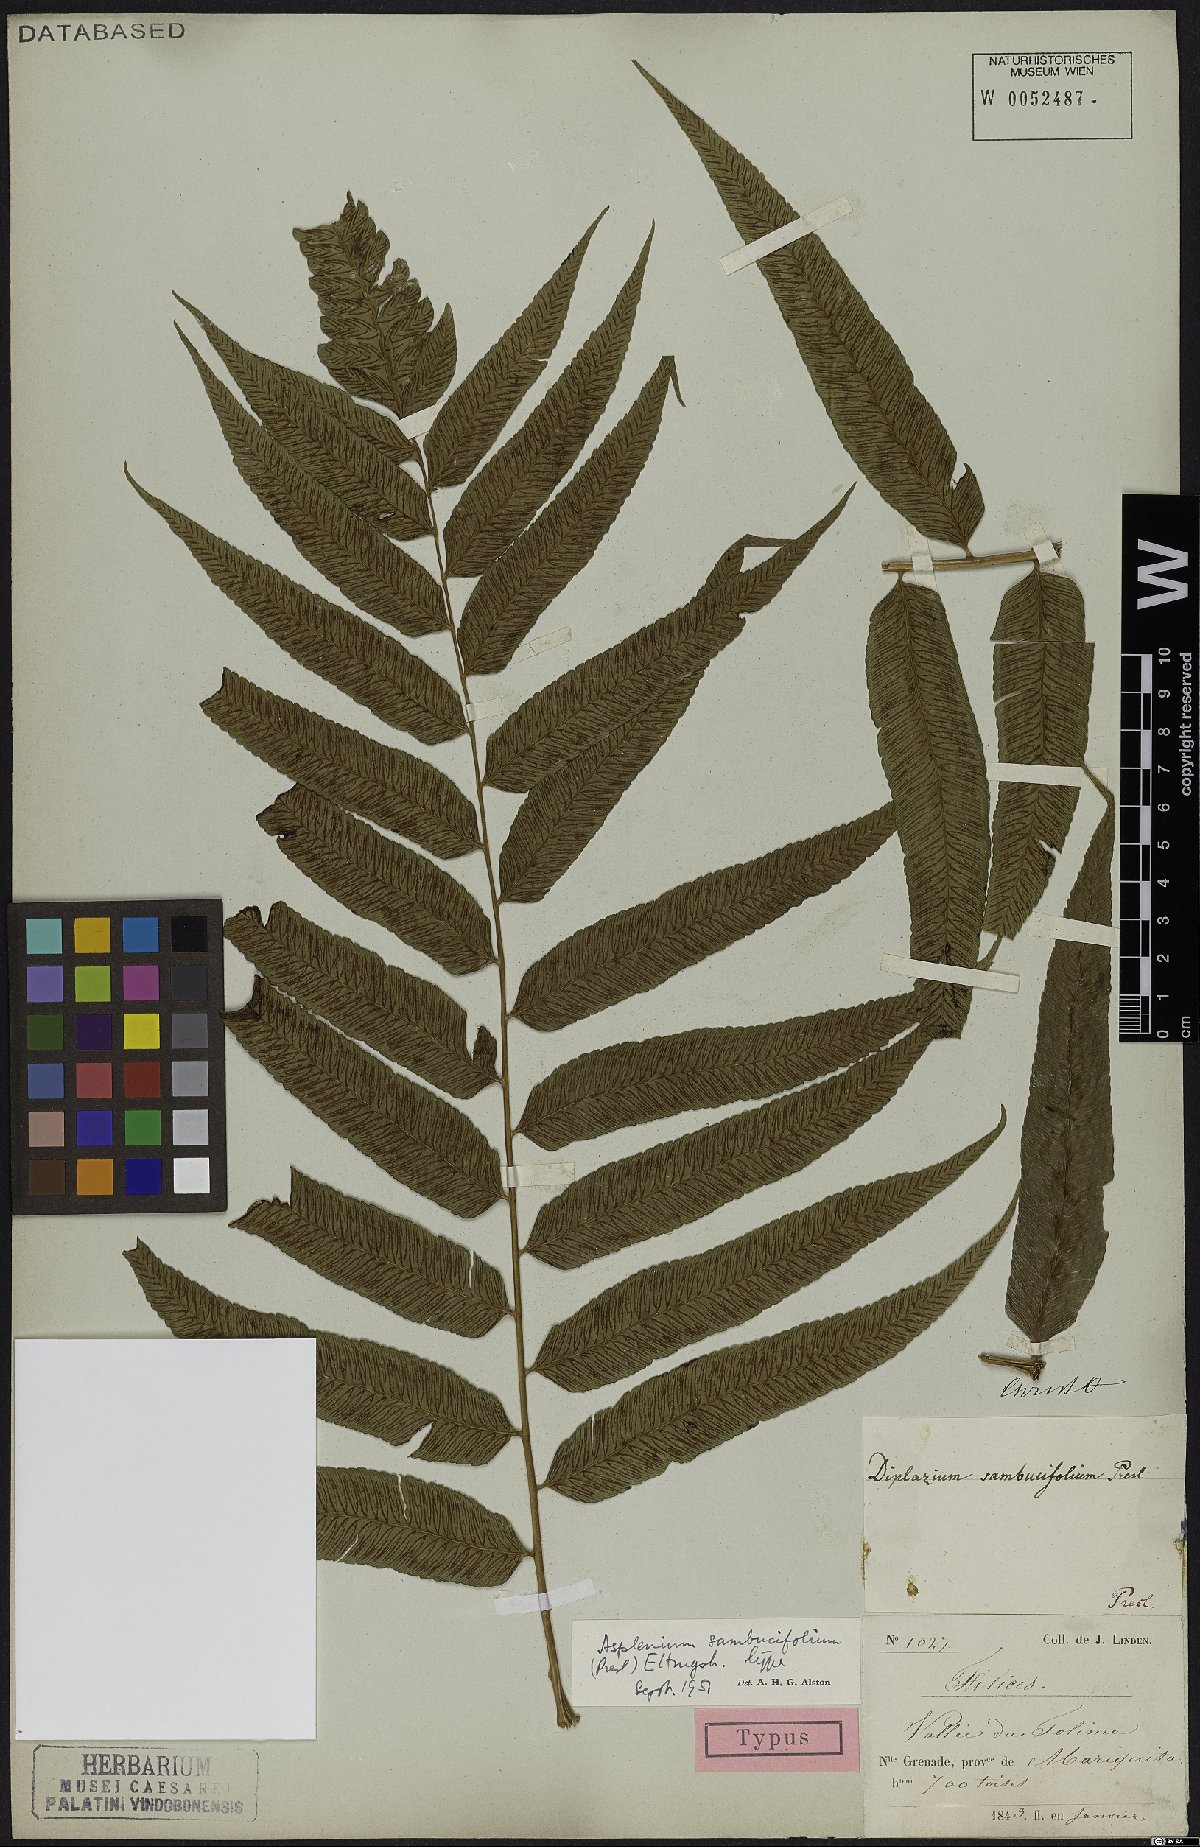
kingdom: Plantae
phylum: Tracheophyta
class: Polypodiopsida
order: Polypodiales
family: Athyriaceae
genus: Diplazium
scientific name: Diplazium rhoifolium
